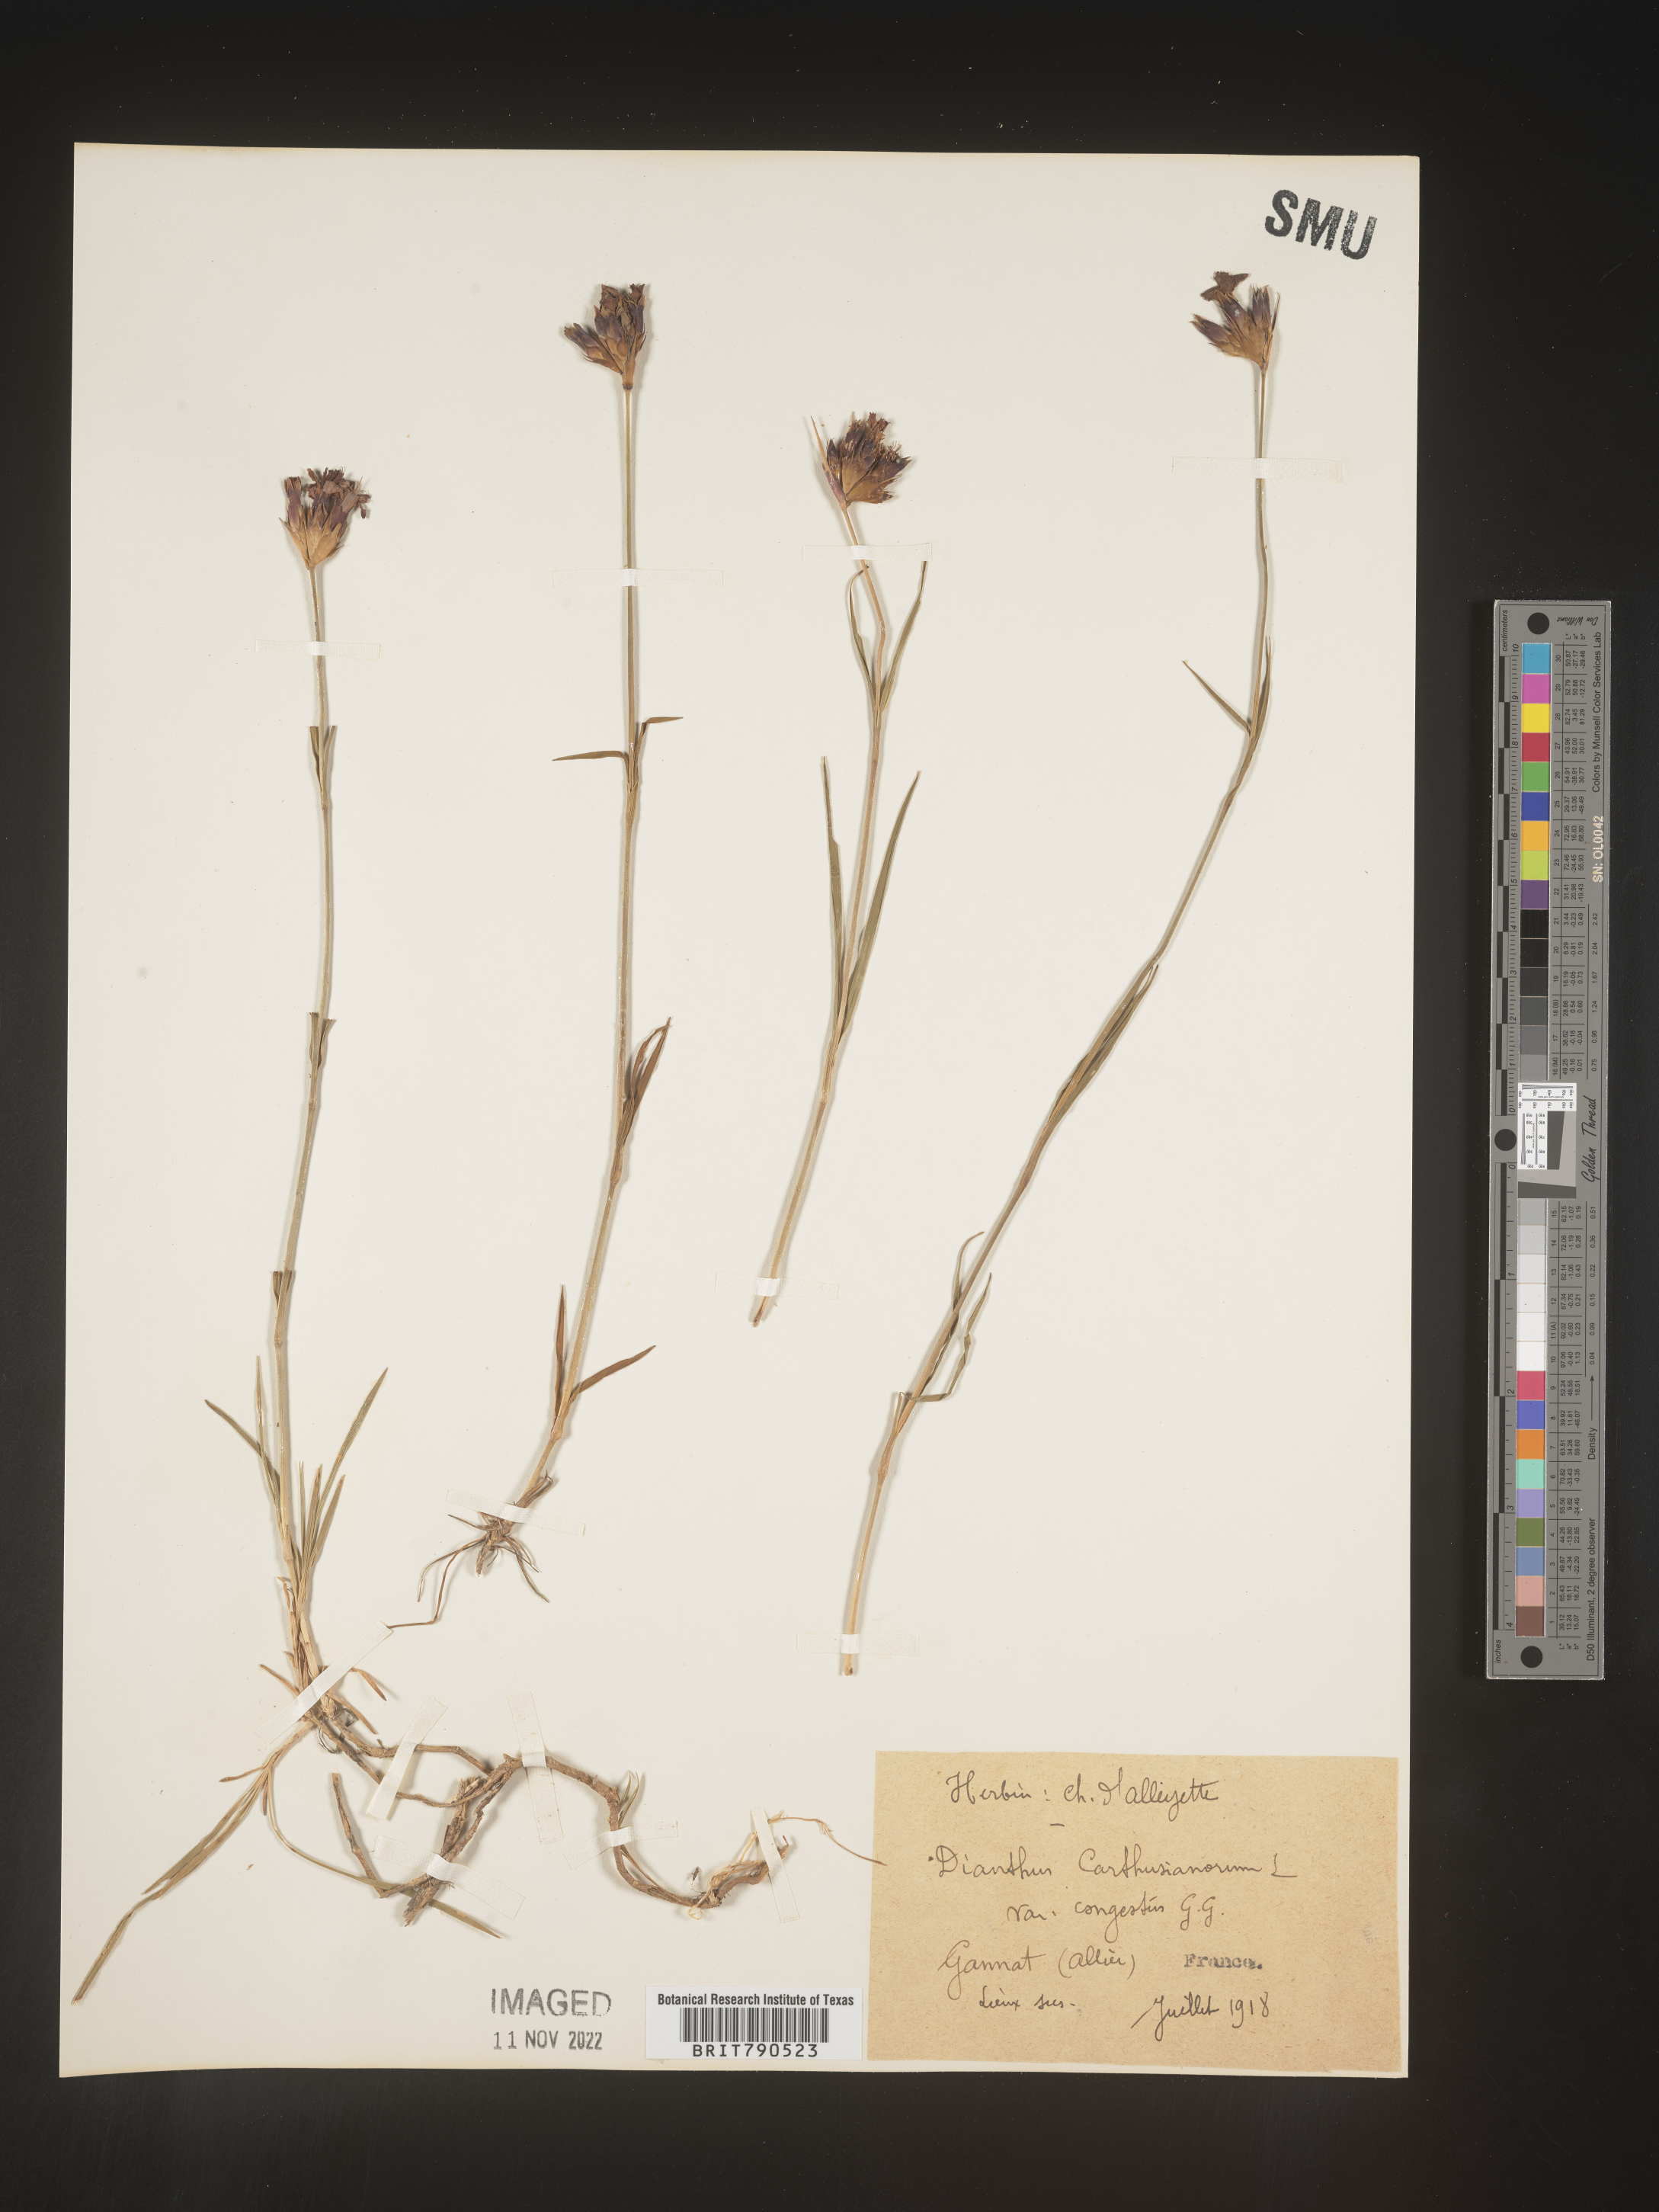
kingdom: Plantae
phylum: Tracheophyta
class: Magnoliopsida
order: Caryophyllales
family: Caryophyllaceae
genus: Dianthus
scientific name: Dianthus carthusianorum
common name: Carthusian pink
